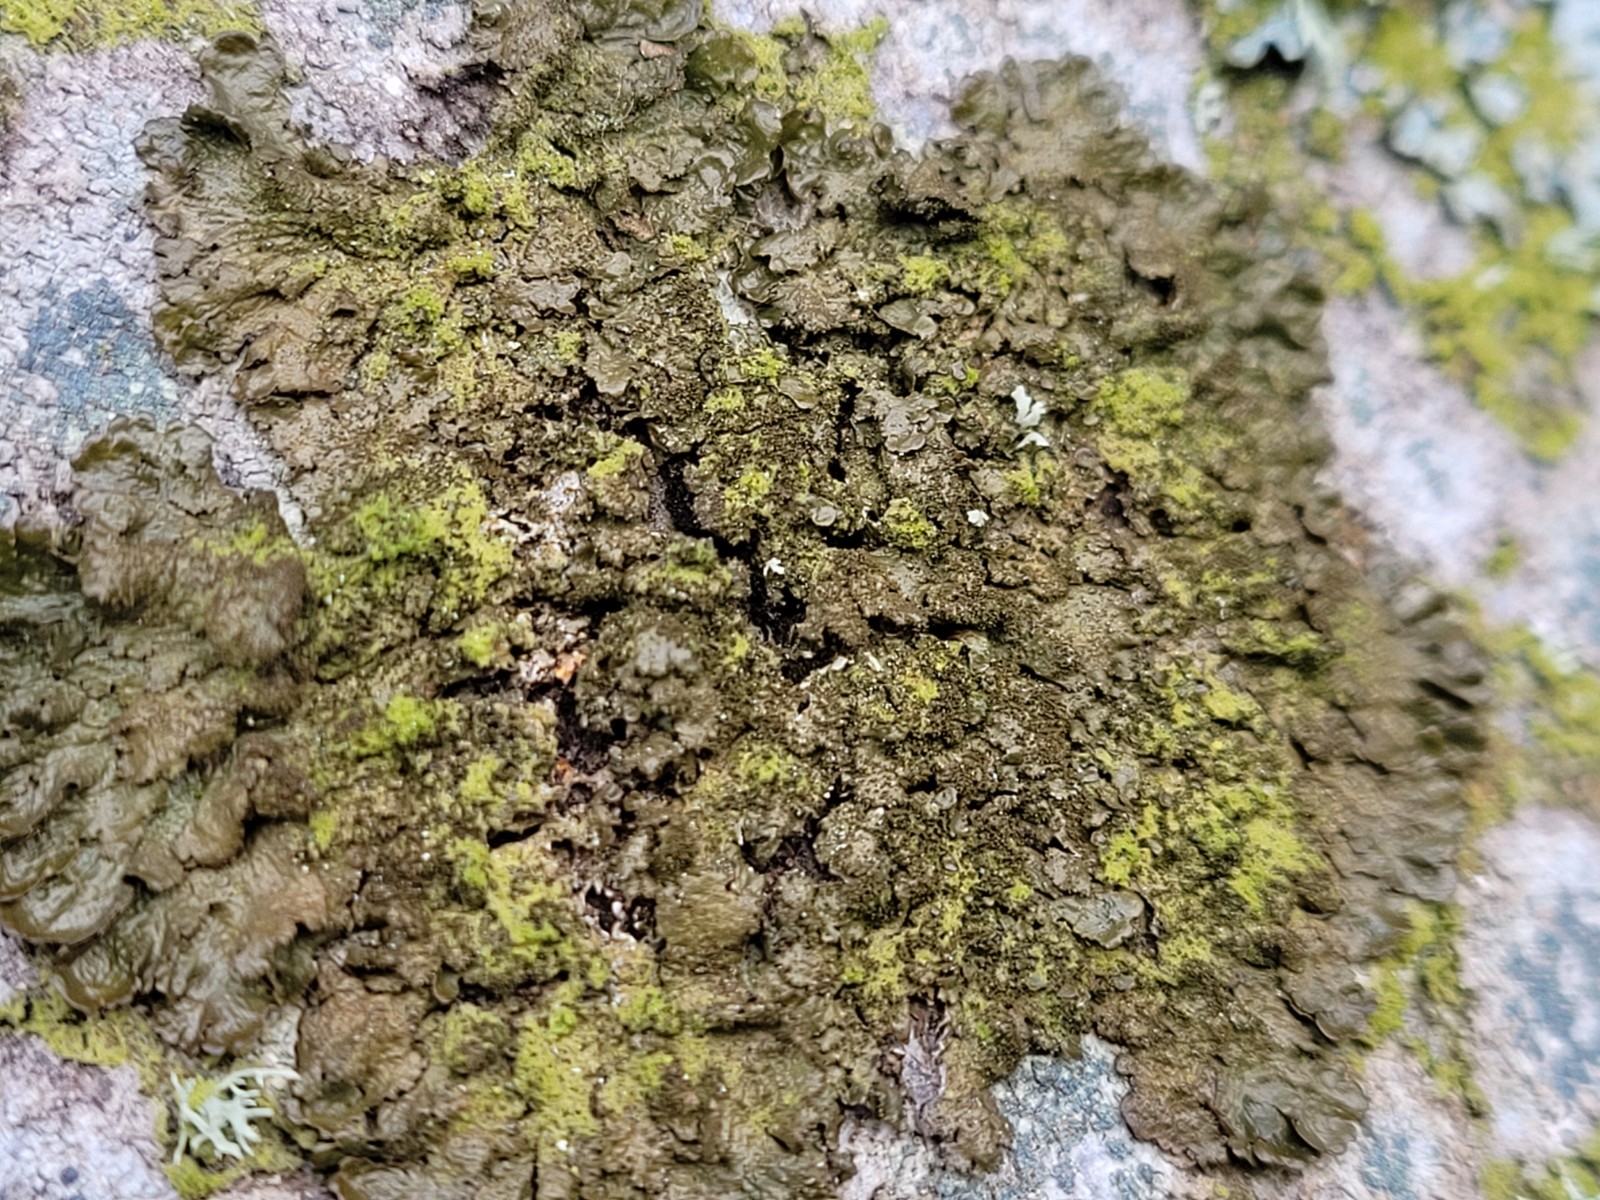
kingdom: Fungi
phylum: Ascomycota
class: Lecanoromycetes
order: Lecanorales
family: Parmeliaceae
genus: Melanelixia
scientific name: Melanelixia glabratula
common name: glinsende skållav
